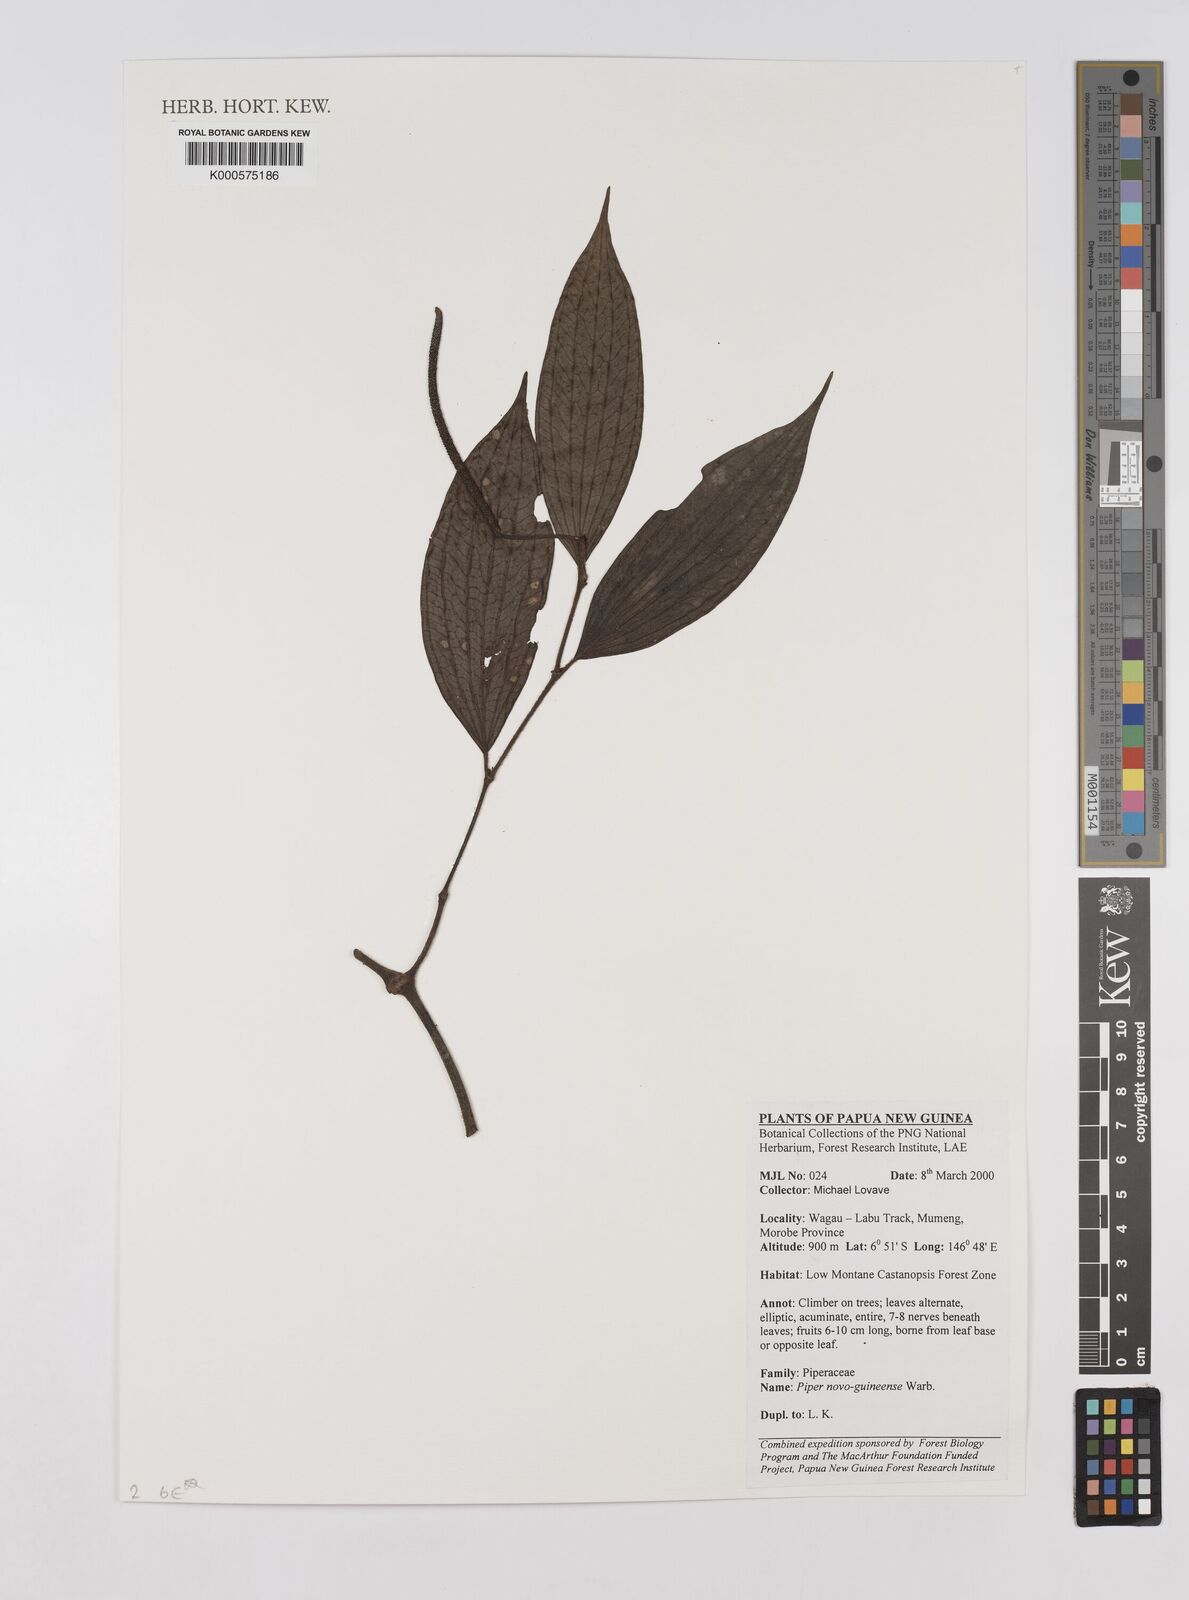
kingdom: Plantae
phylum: Tracheophyta
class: Magnoliopsida
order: Piperales
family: Piperaceae
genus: Piper
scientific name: Piper macropiper
